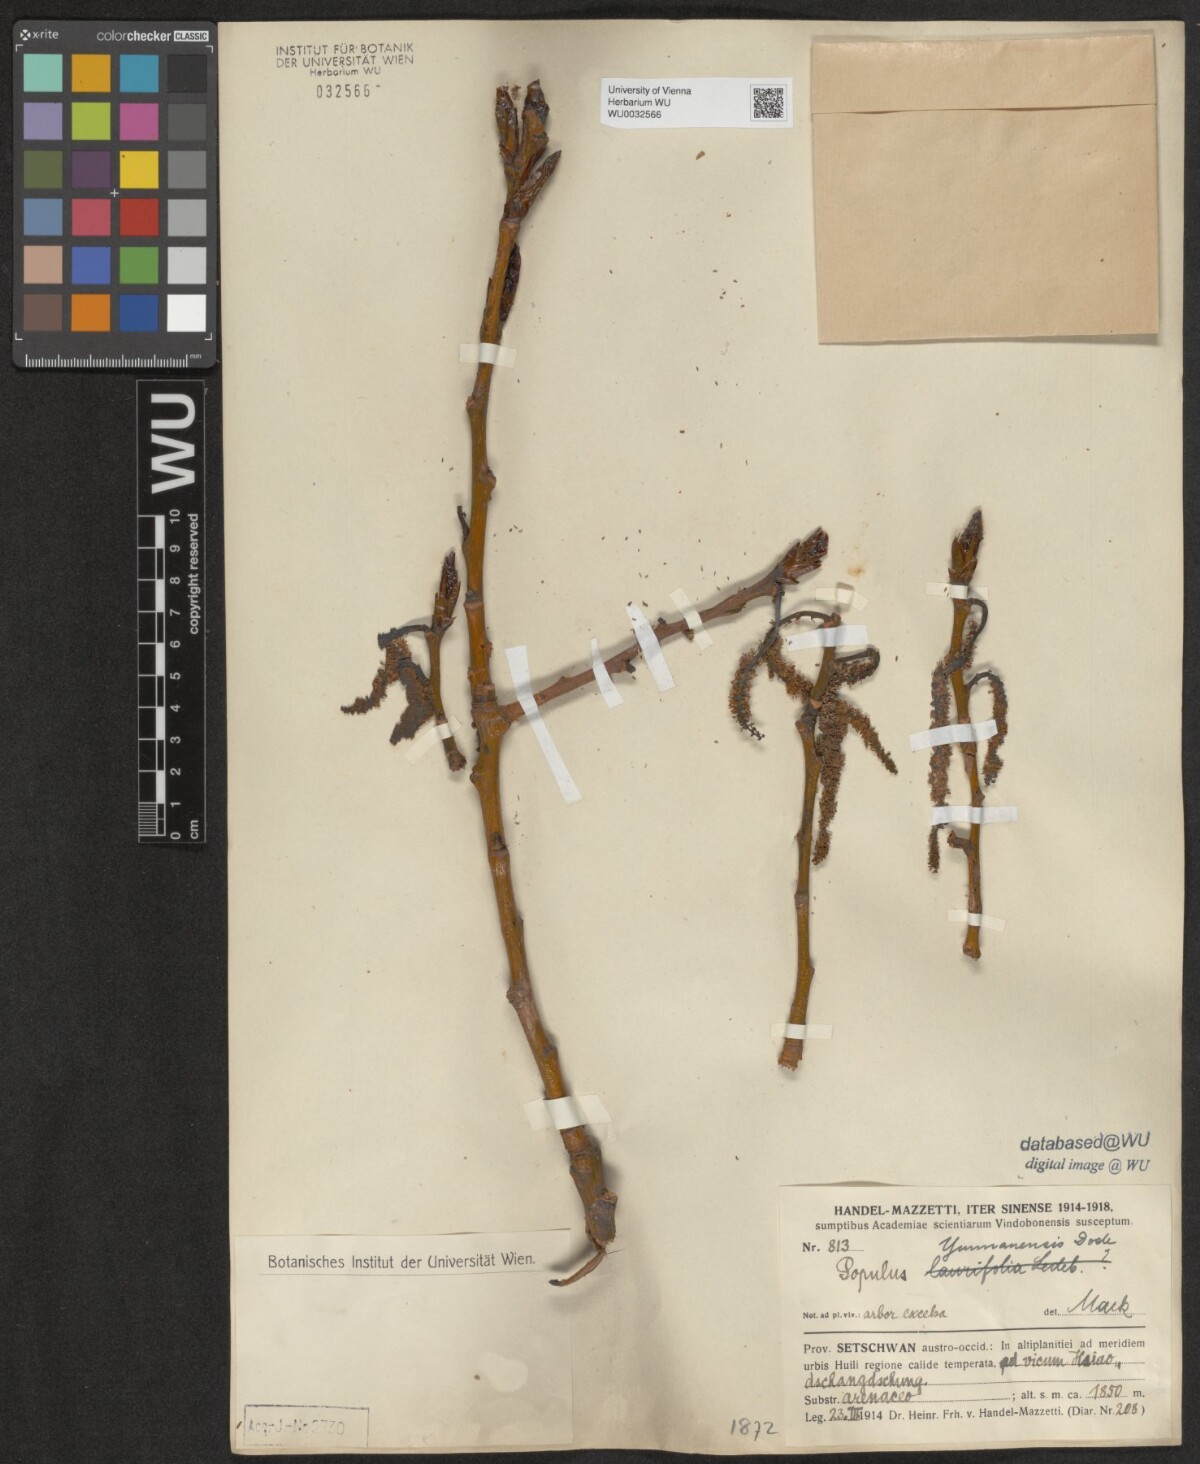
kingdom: Plantae
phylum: Tracheophyta
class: Magnoliopsida
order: Malpighiales
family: Salicaceae
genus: Populus
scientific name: Populus yunnanensis
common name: Yunnan poplar
